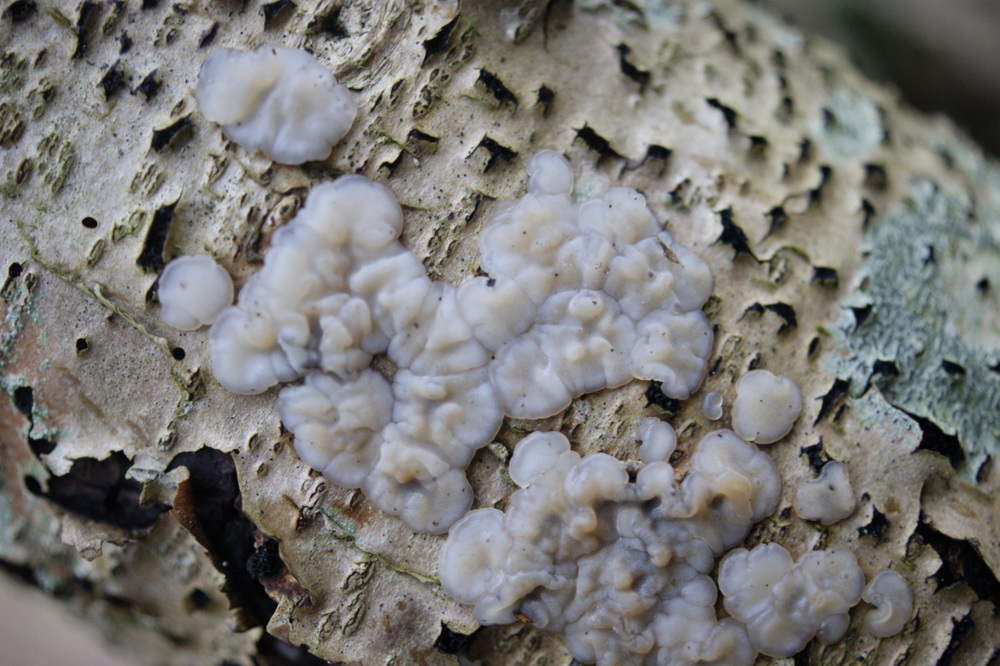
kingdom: Fungi
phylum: Basidiomycota
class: Agaricomycetes
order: Auriculariales
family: Auriculariaceae
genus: Exidia
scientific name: Exidia thuretiana
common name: hvidlig bævretop
